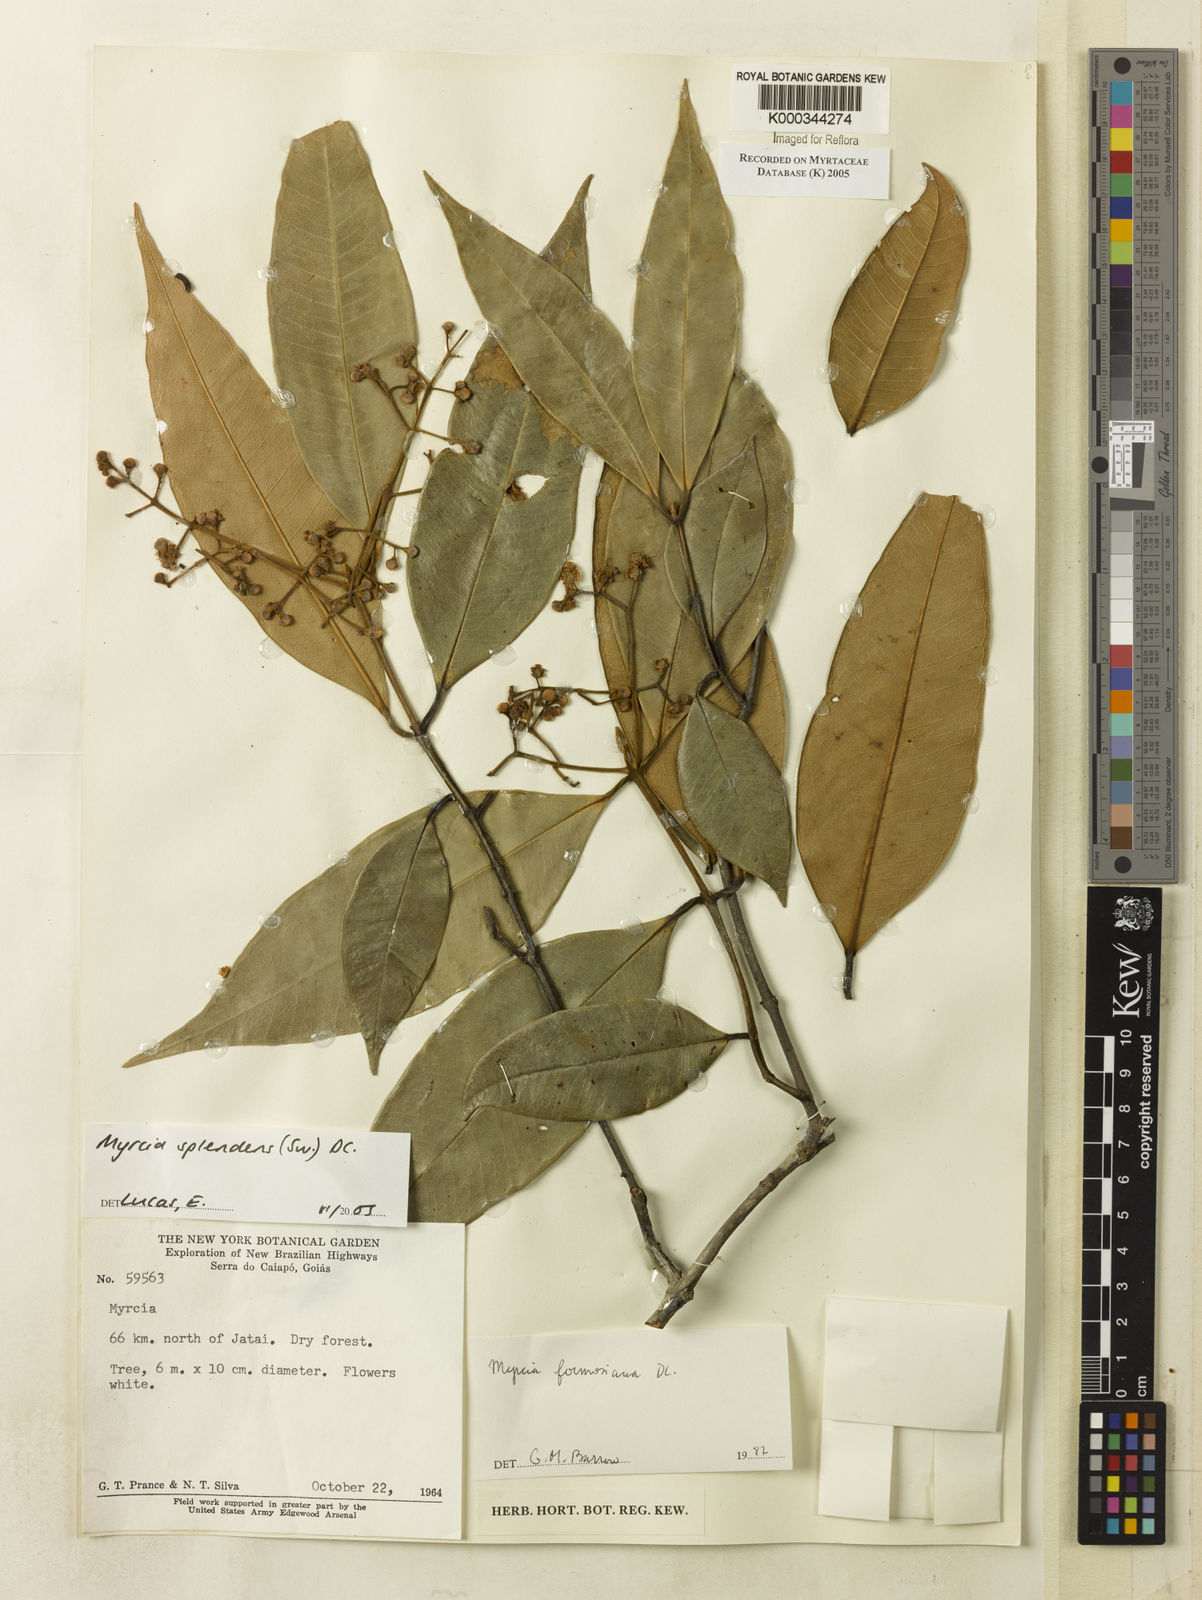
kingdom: Plantae
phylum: Tracheophyta
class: Magnoliopsida
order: Myrtales
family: Myrtaceae
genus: Myrcia
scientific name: Myrcia splendens
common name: Surinam cherry
